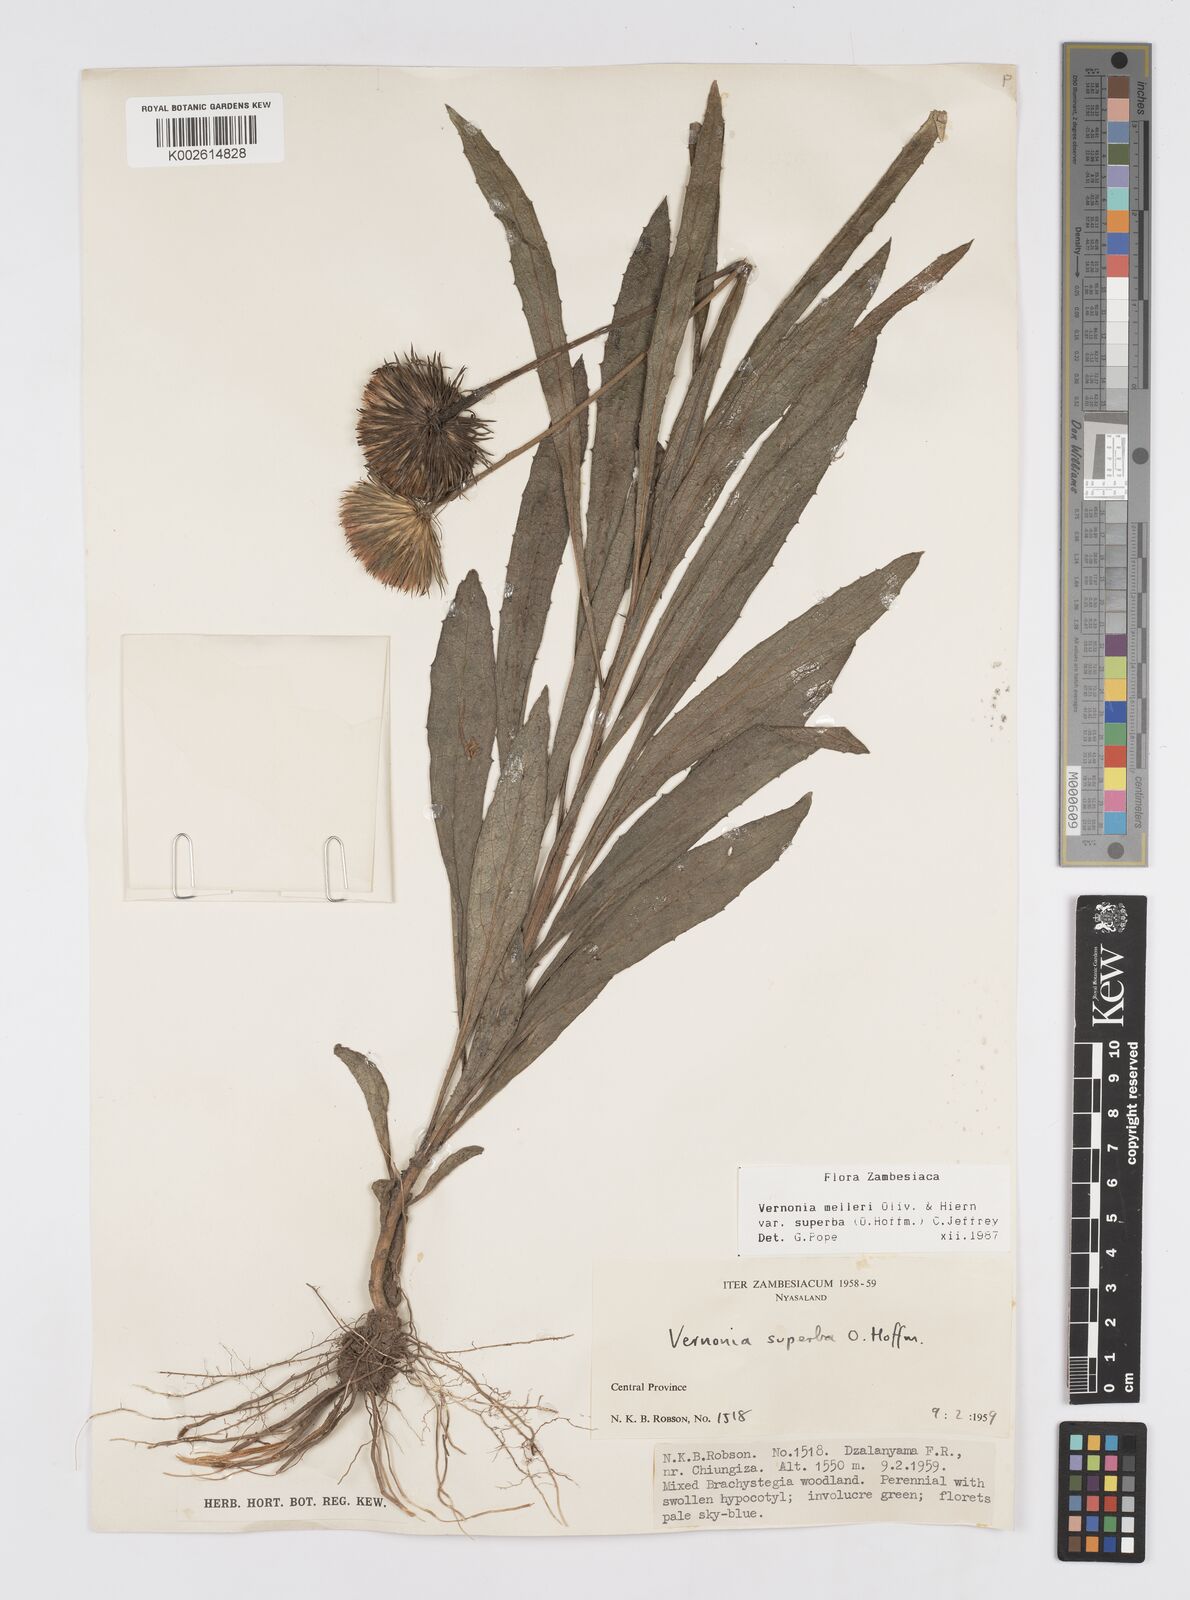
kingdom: Plantae
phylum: Tracheophyta
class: Magnoliopsida
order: Asterales
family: Asteraceae
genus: Linzia
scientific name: Linzia melleri
